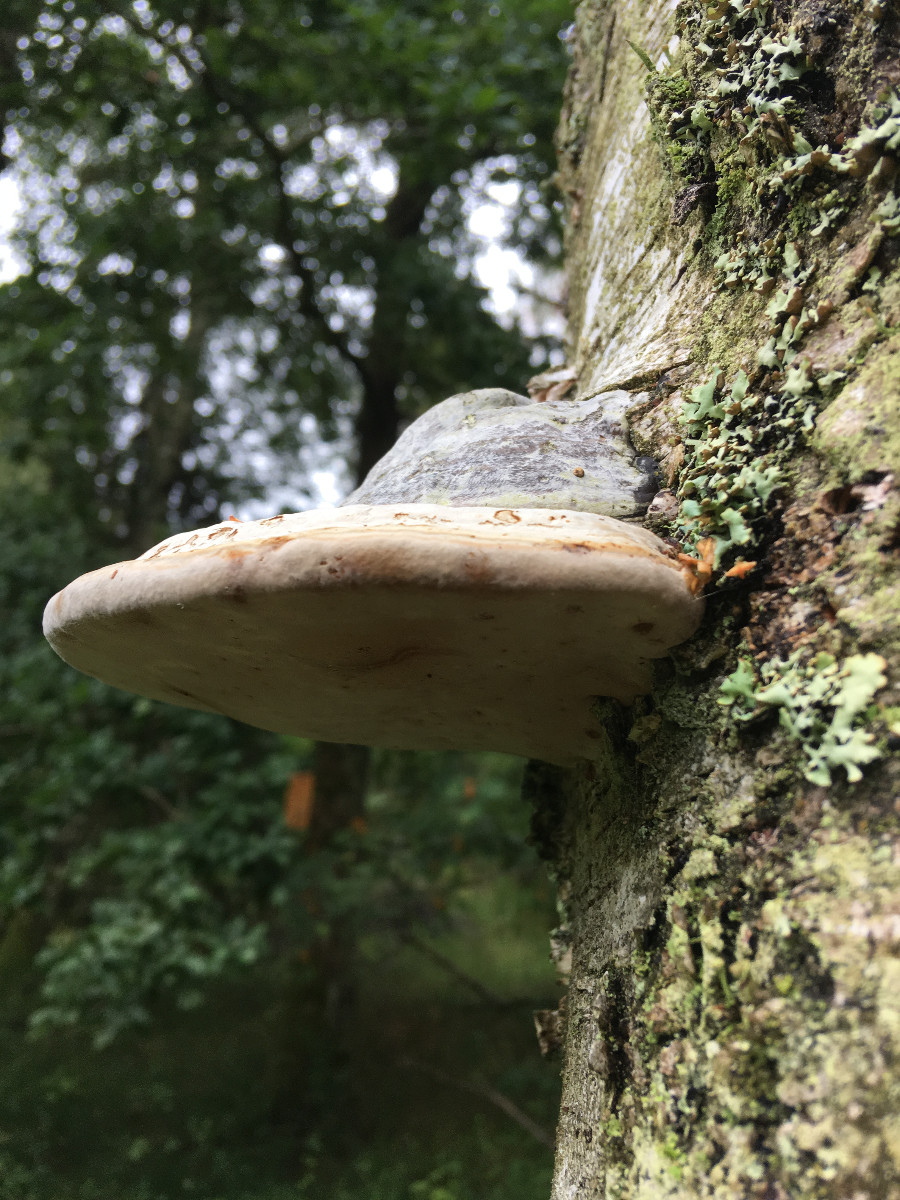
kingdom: Fungi
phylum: Basidiomycota
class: Agaricomycetes
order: Polyporales
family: Fomitopsidaceae
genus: Fomitopsis
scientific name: Fomitopsis betulina
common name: birkeporesvamp
